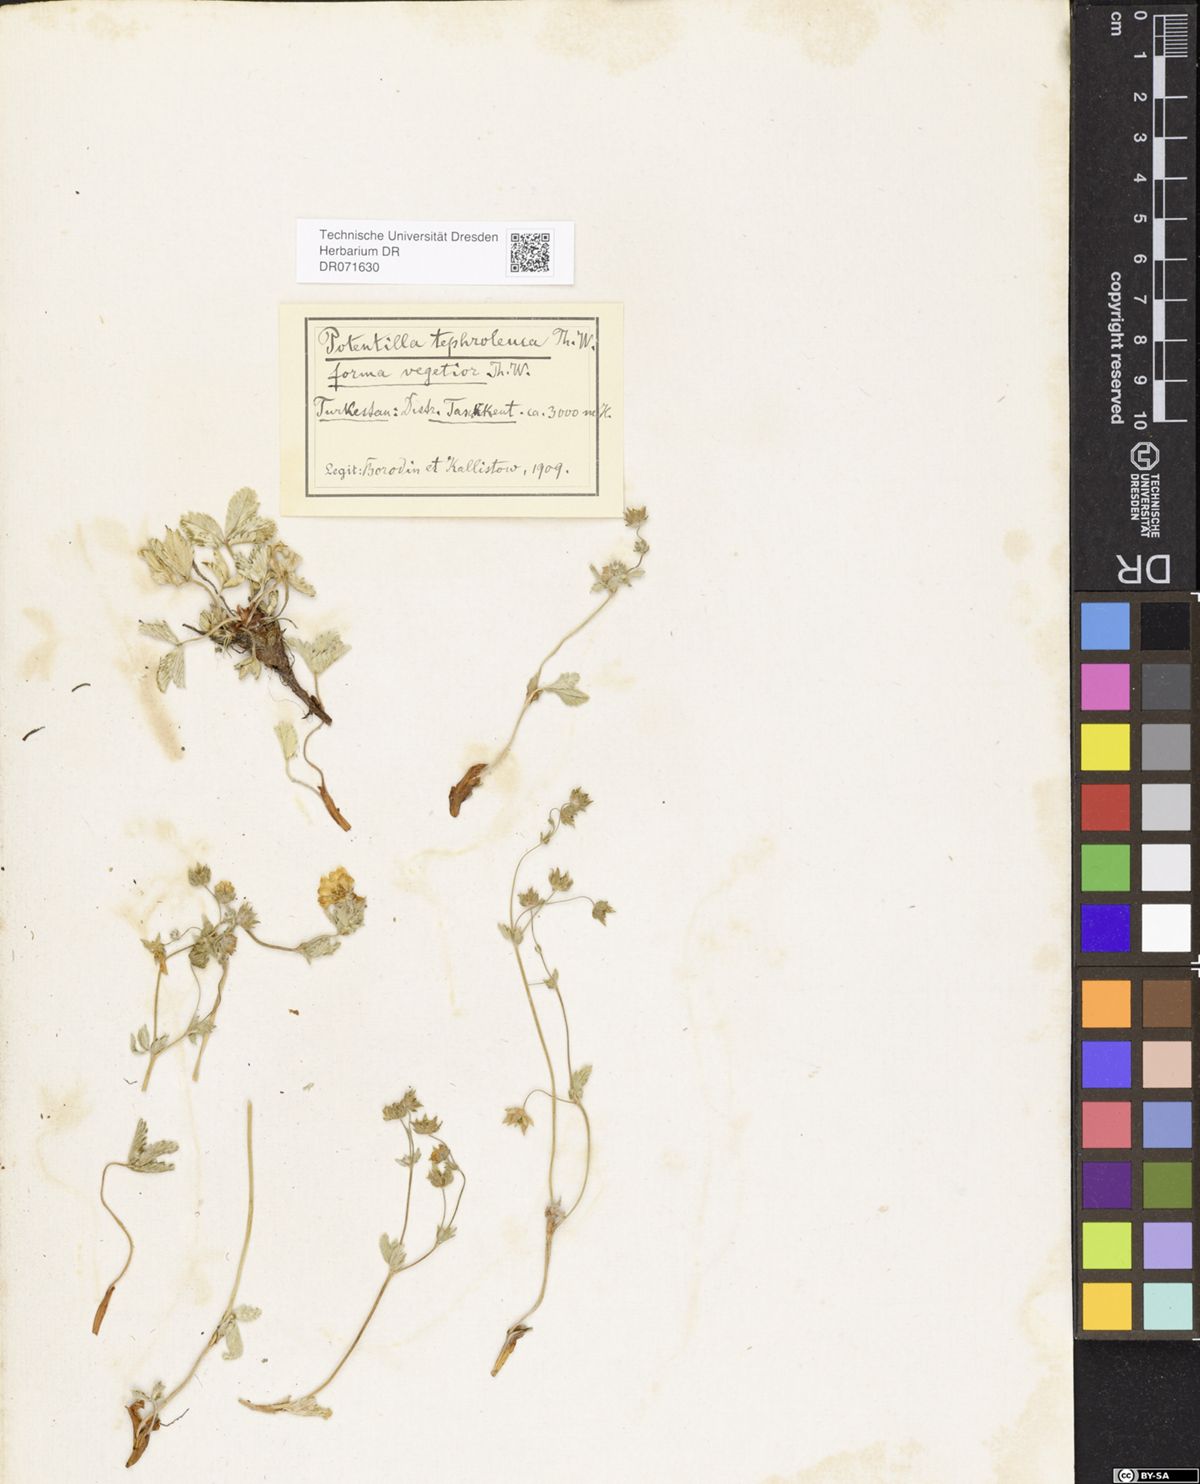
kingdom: Plantae
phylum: Tracheophyta
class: Magnoliopsida
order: Rosales
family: Rosaceae
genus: Potentilla
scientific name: Potentilla tephroleuca
